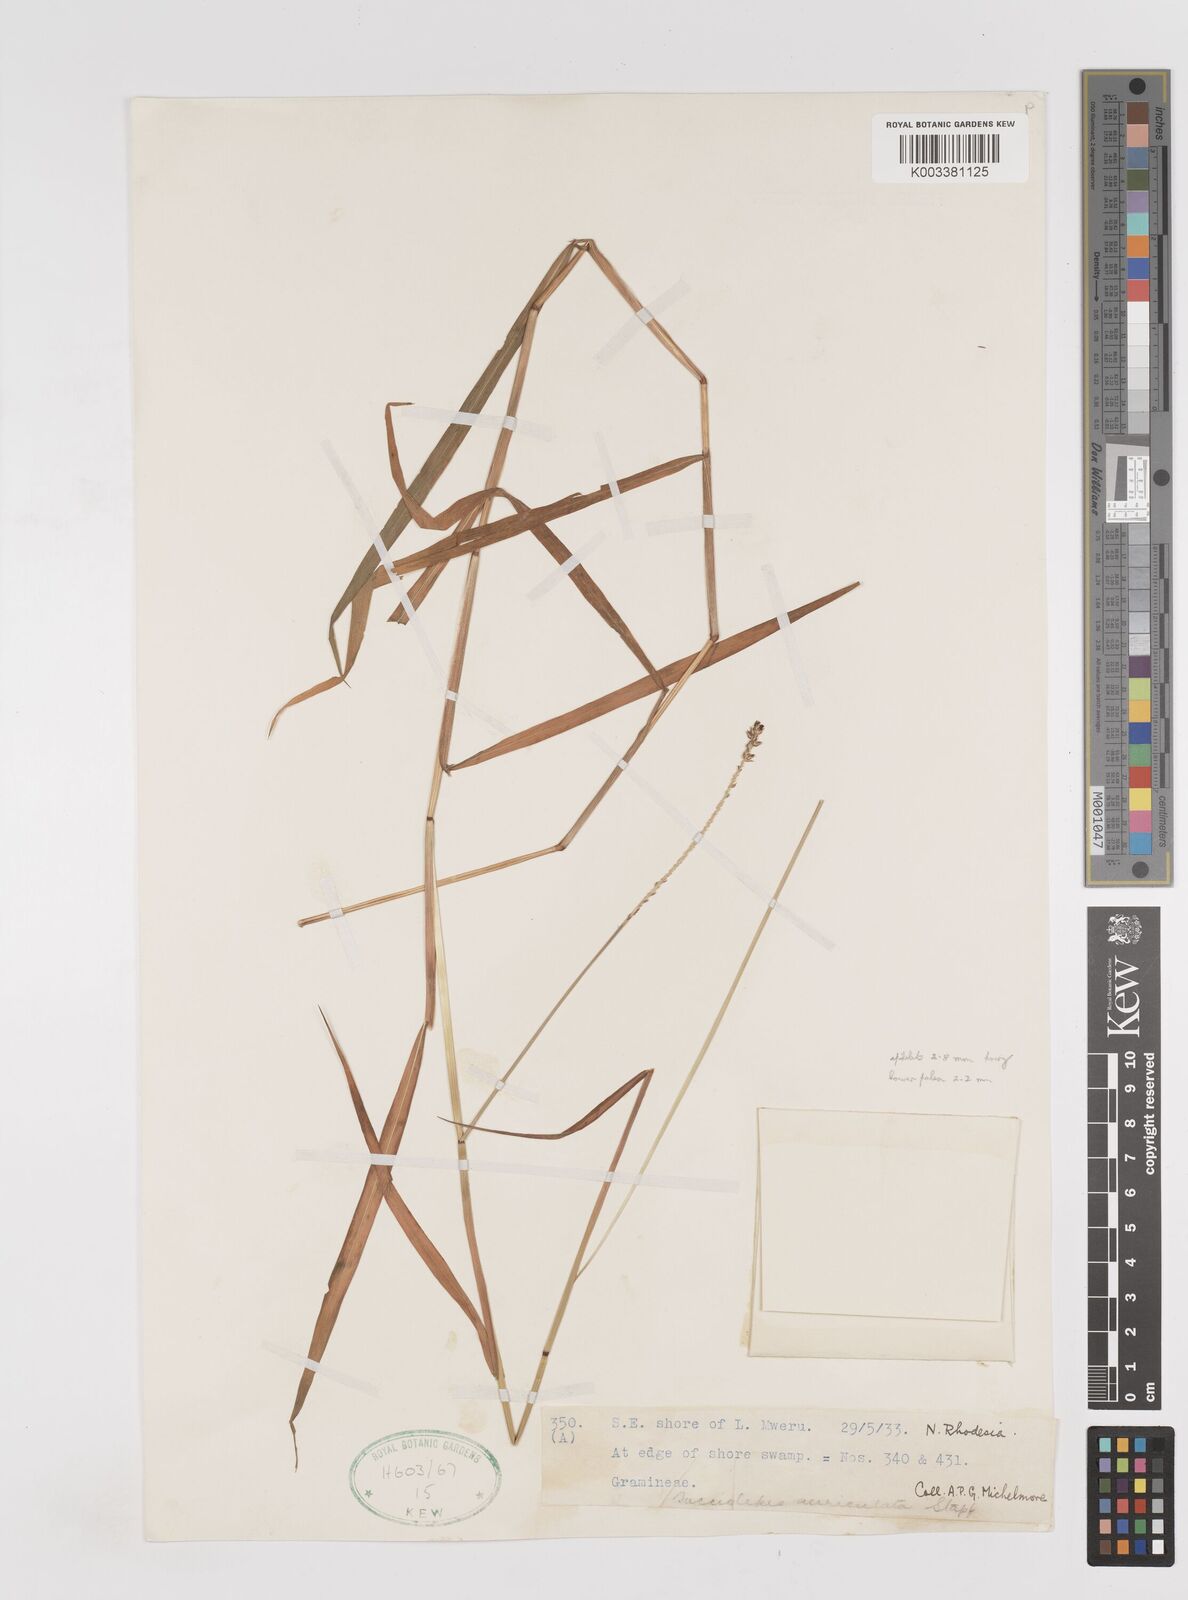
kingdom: Plantae
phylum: Tracheophyta
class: Liliopsida
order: Poales
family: Poaceae
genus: Sacciolepis
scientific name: Sacciolepis leptorrhachis
